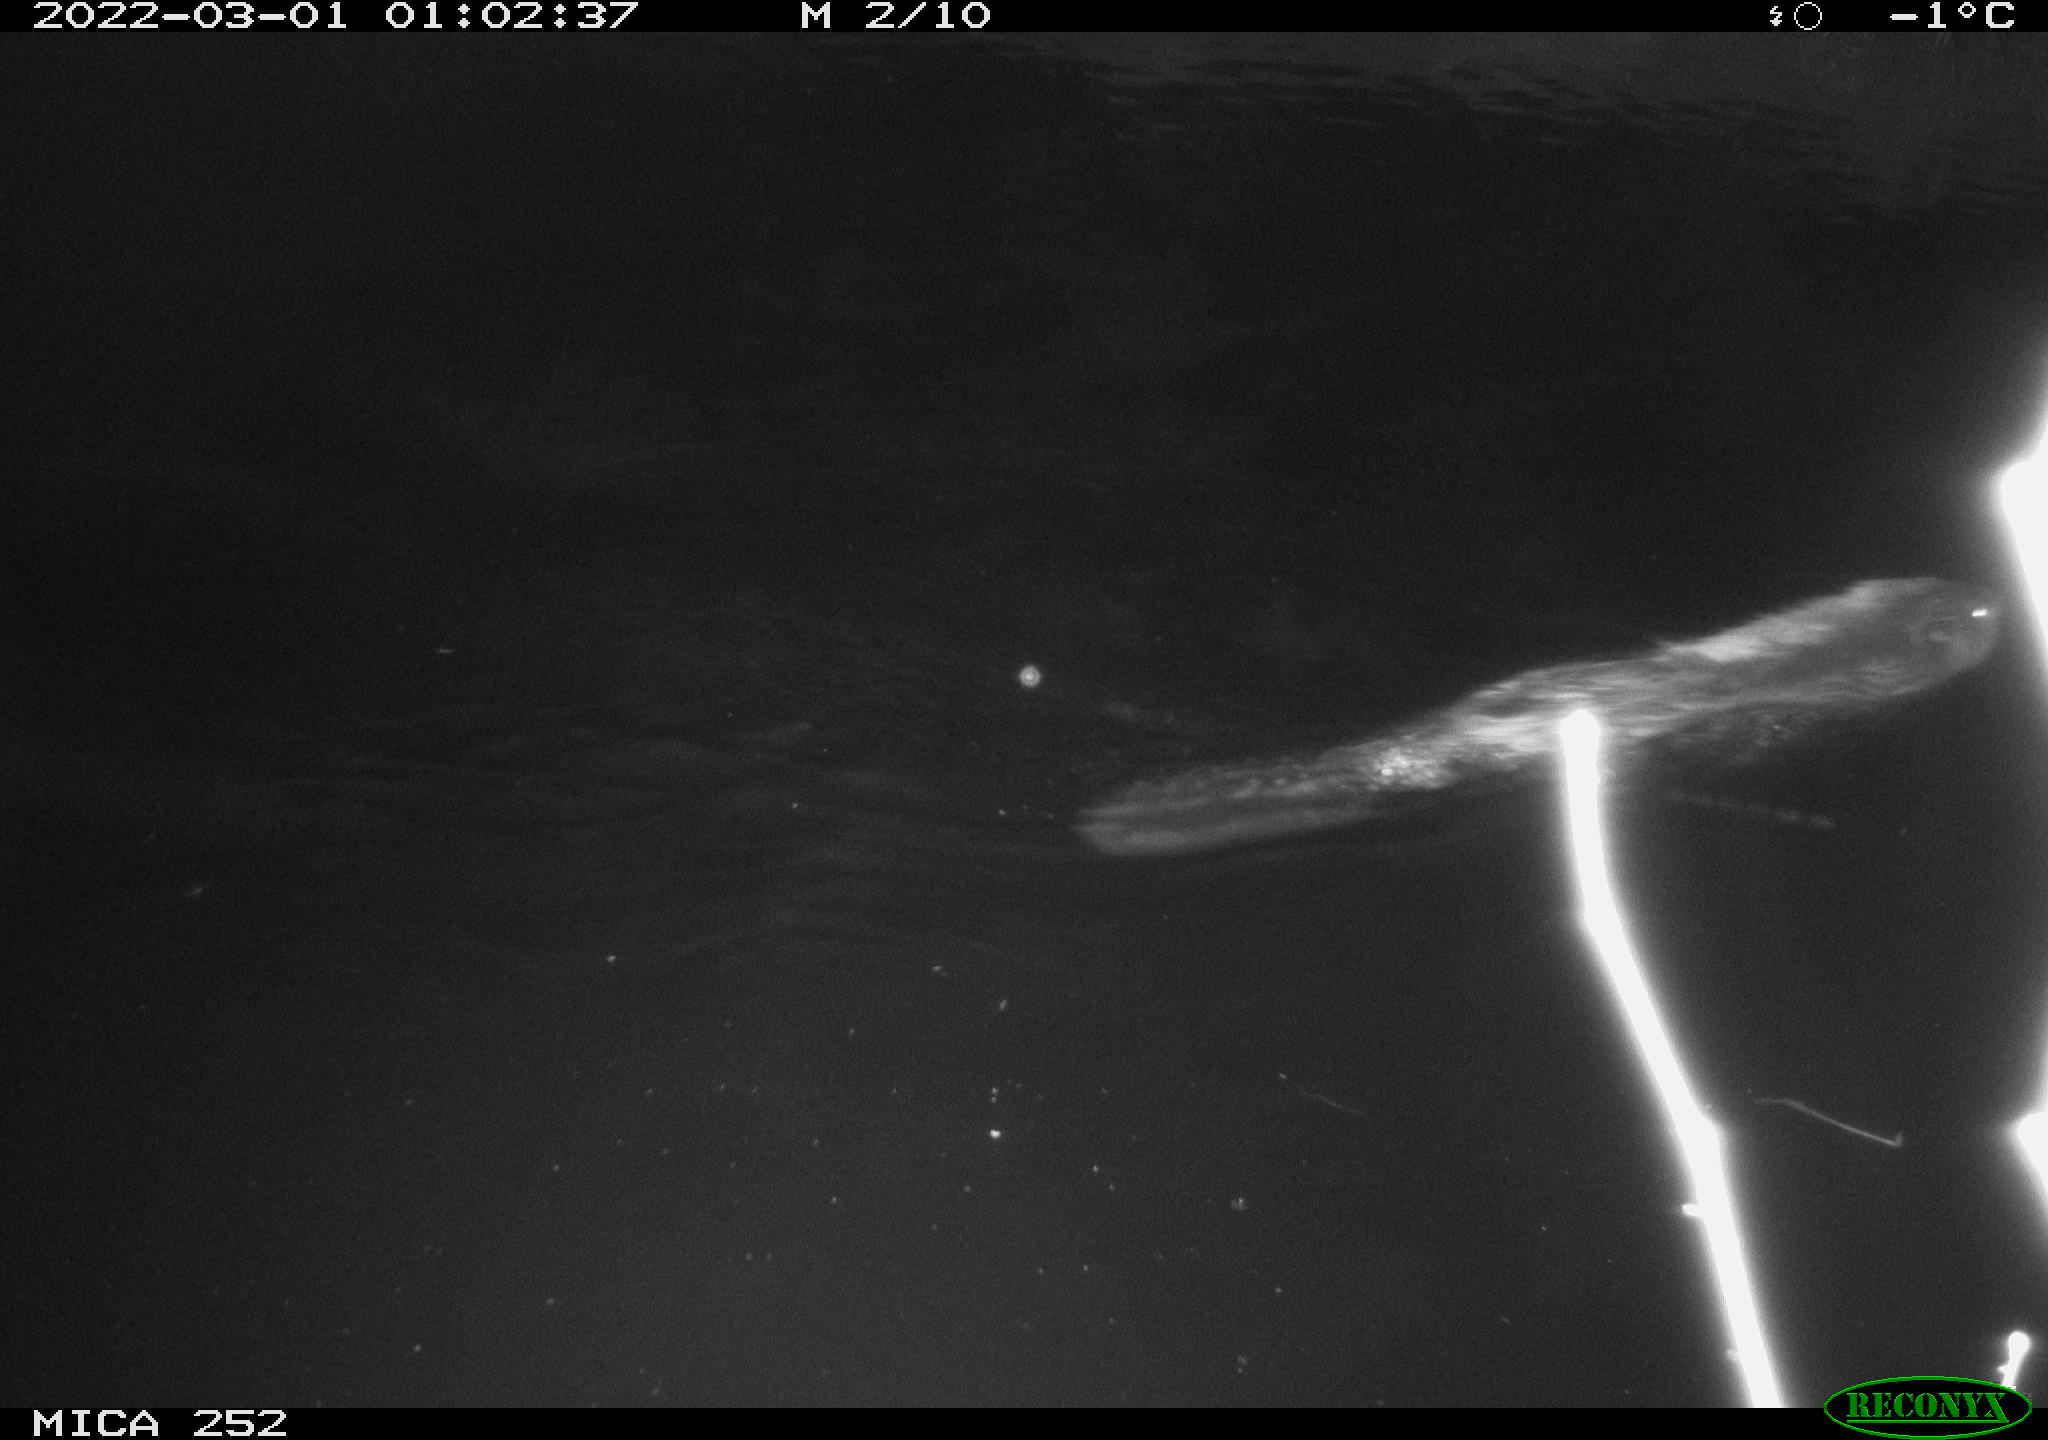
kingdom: Animalia
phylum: Chordata
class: Mammalia
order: Rodentia
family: Castoridae
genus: Castor
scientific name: Castor fiber
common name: Eurasian beaver
